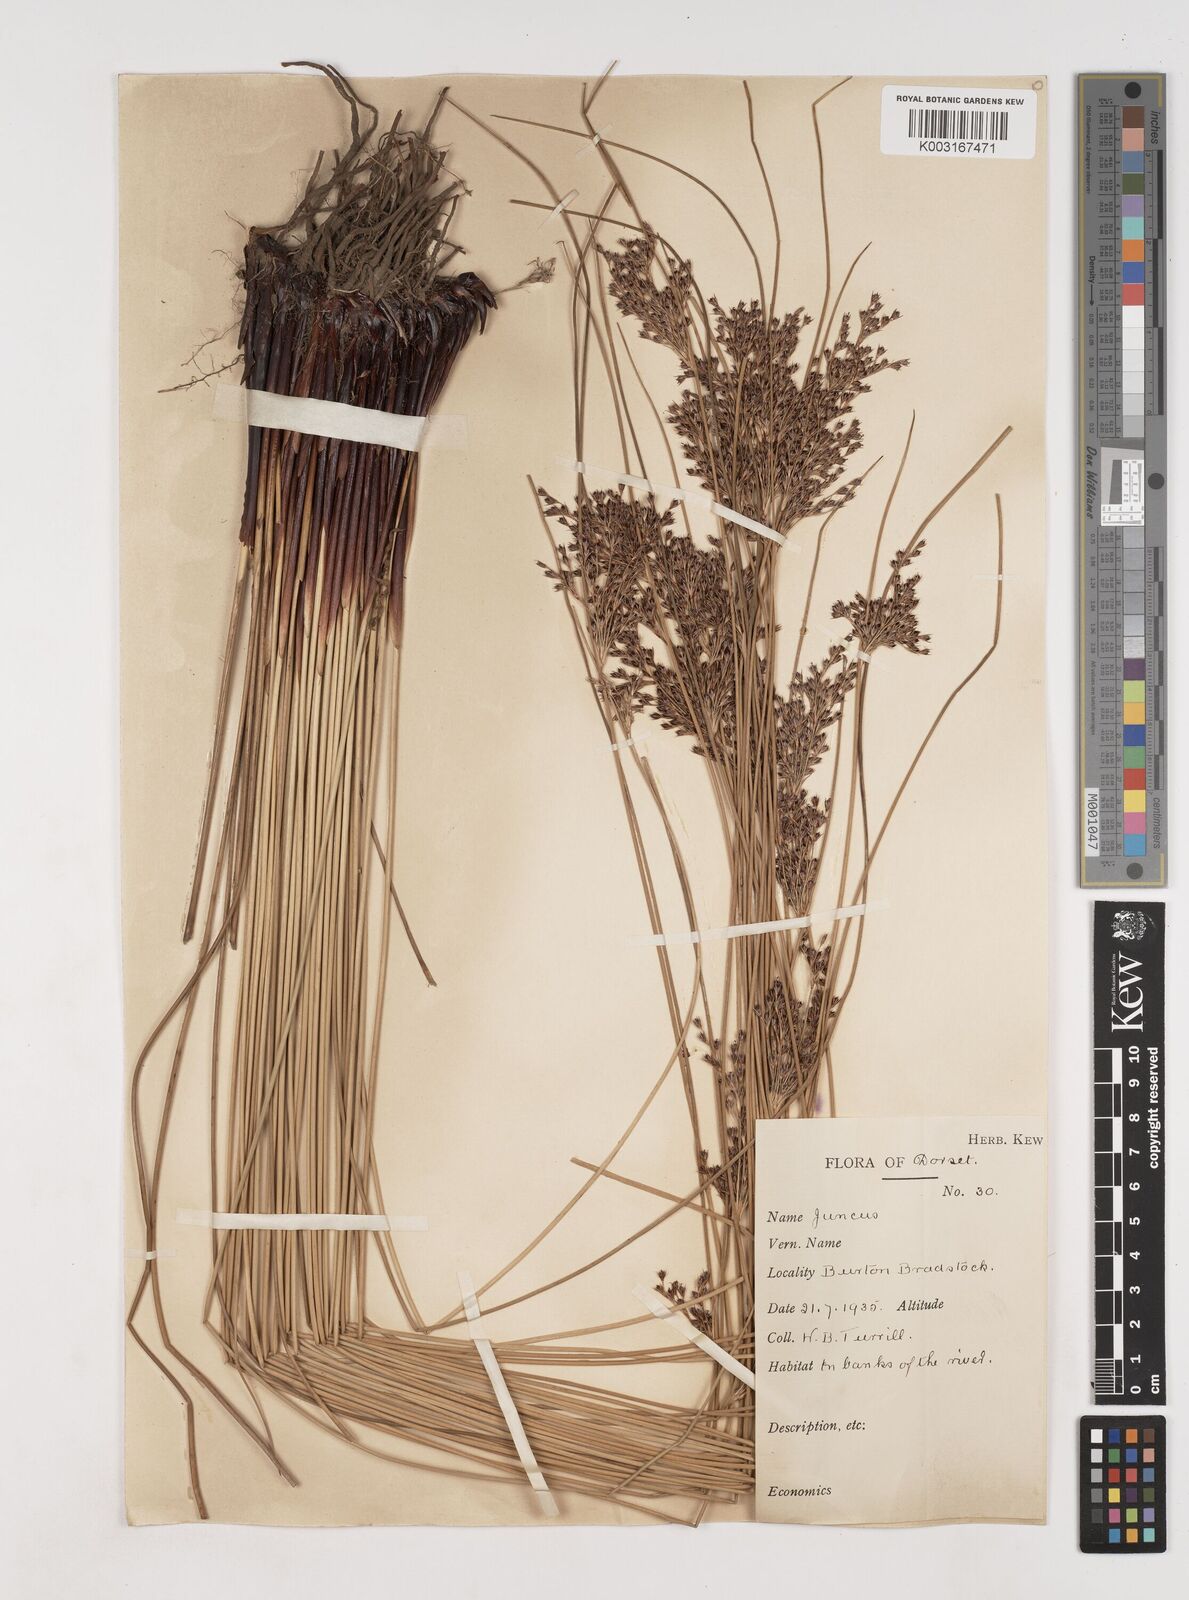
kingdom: Plantae
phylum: Tracheophyta
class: Liliopsida
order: Poales
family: Juncaceae
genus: Juncus
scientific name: Juncus inflexus
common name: Hard rush
